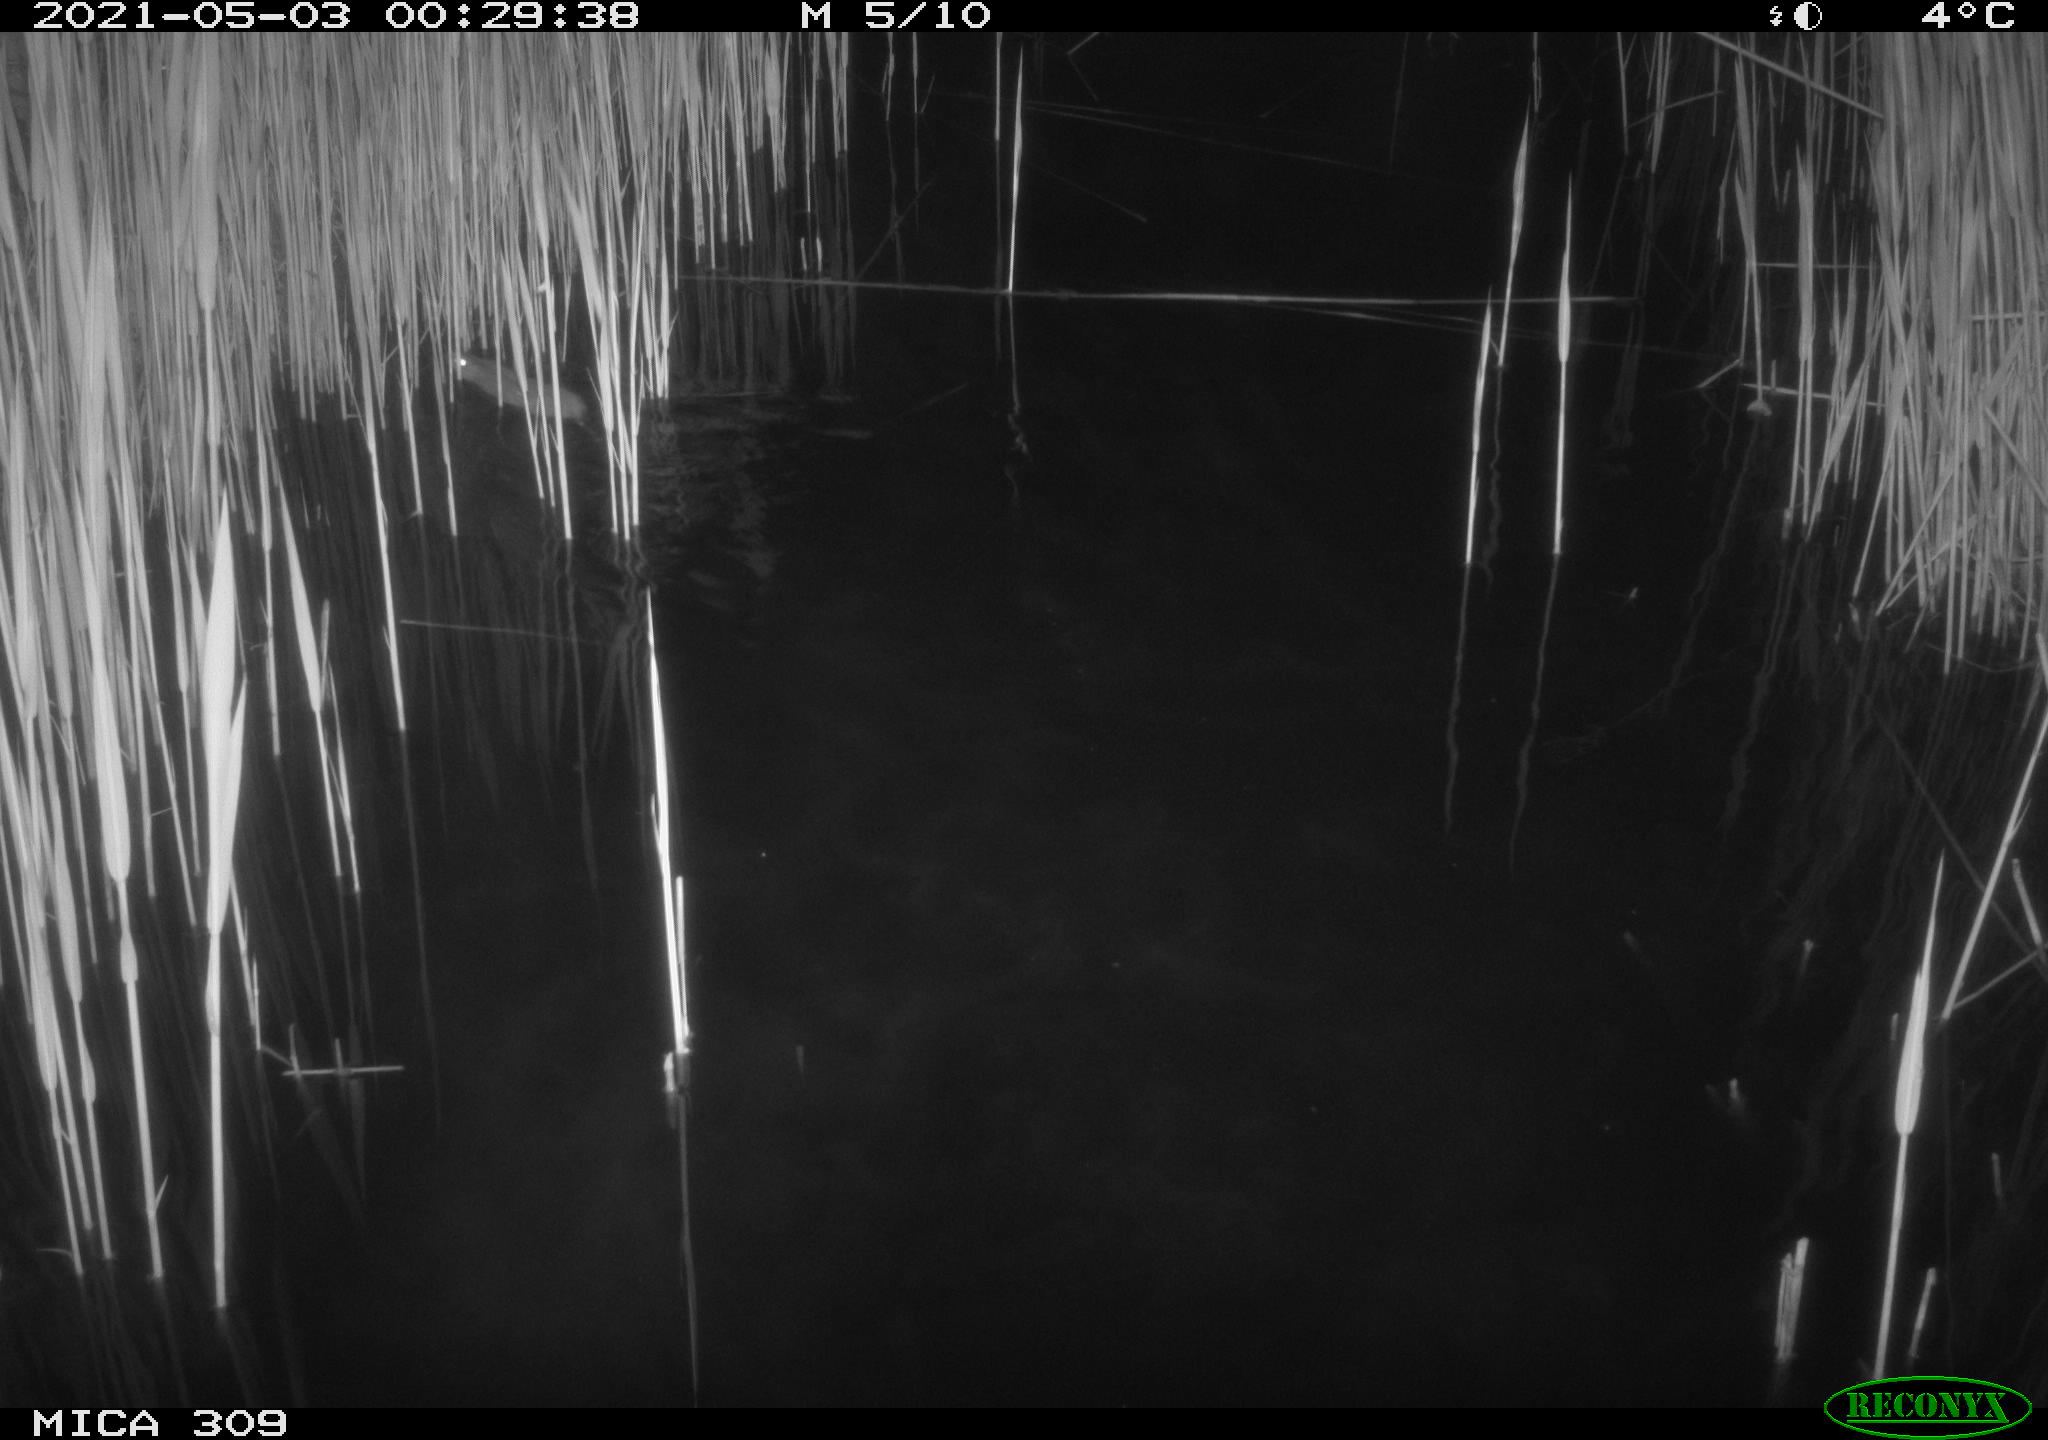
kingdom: Animalia
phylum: Chordata
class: Mammalia
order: Rodentia
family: Muridae
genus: Rattus
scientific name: Rattus norvegicus
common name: Brown rat
